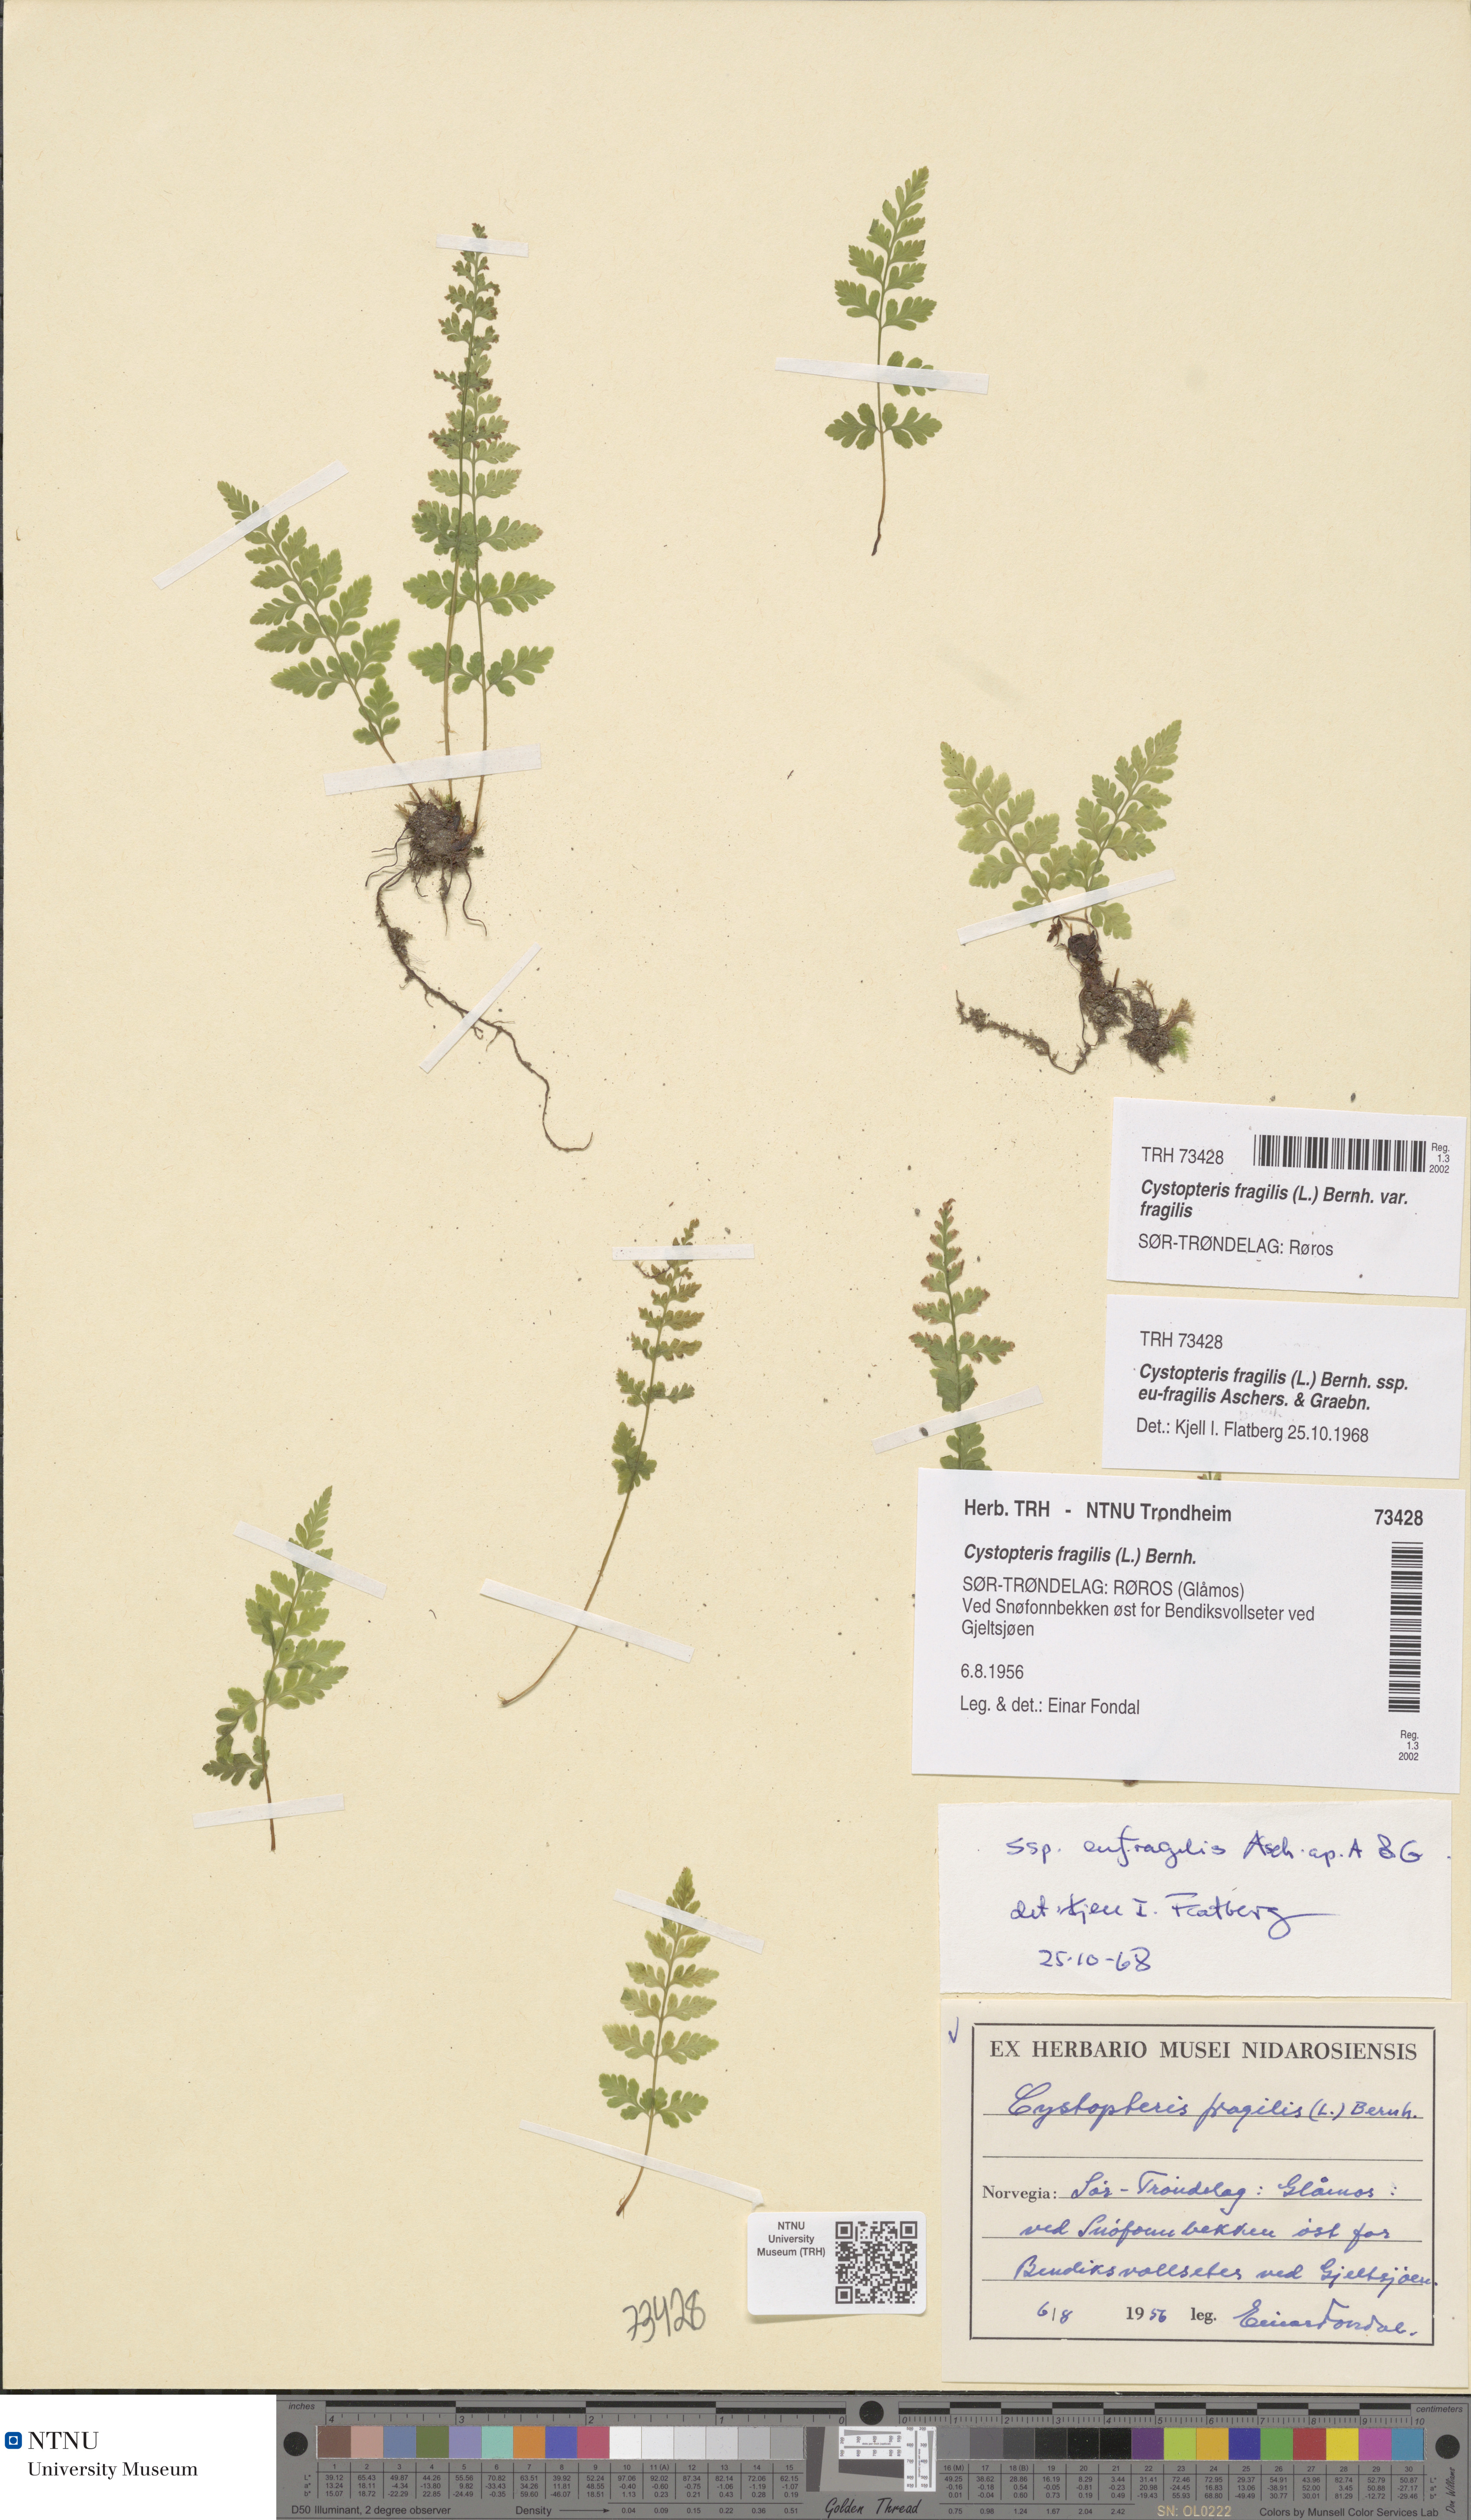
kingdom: Plantae
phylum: Tracheophyta
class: Polypodiopsida
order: Polypodiales
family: Cystopteridaceae
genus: Cystopteris
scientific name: Cystopteris fragilis
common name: Brittle bladder fern
